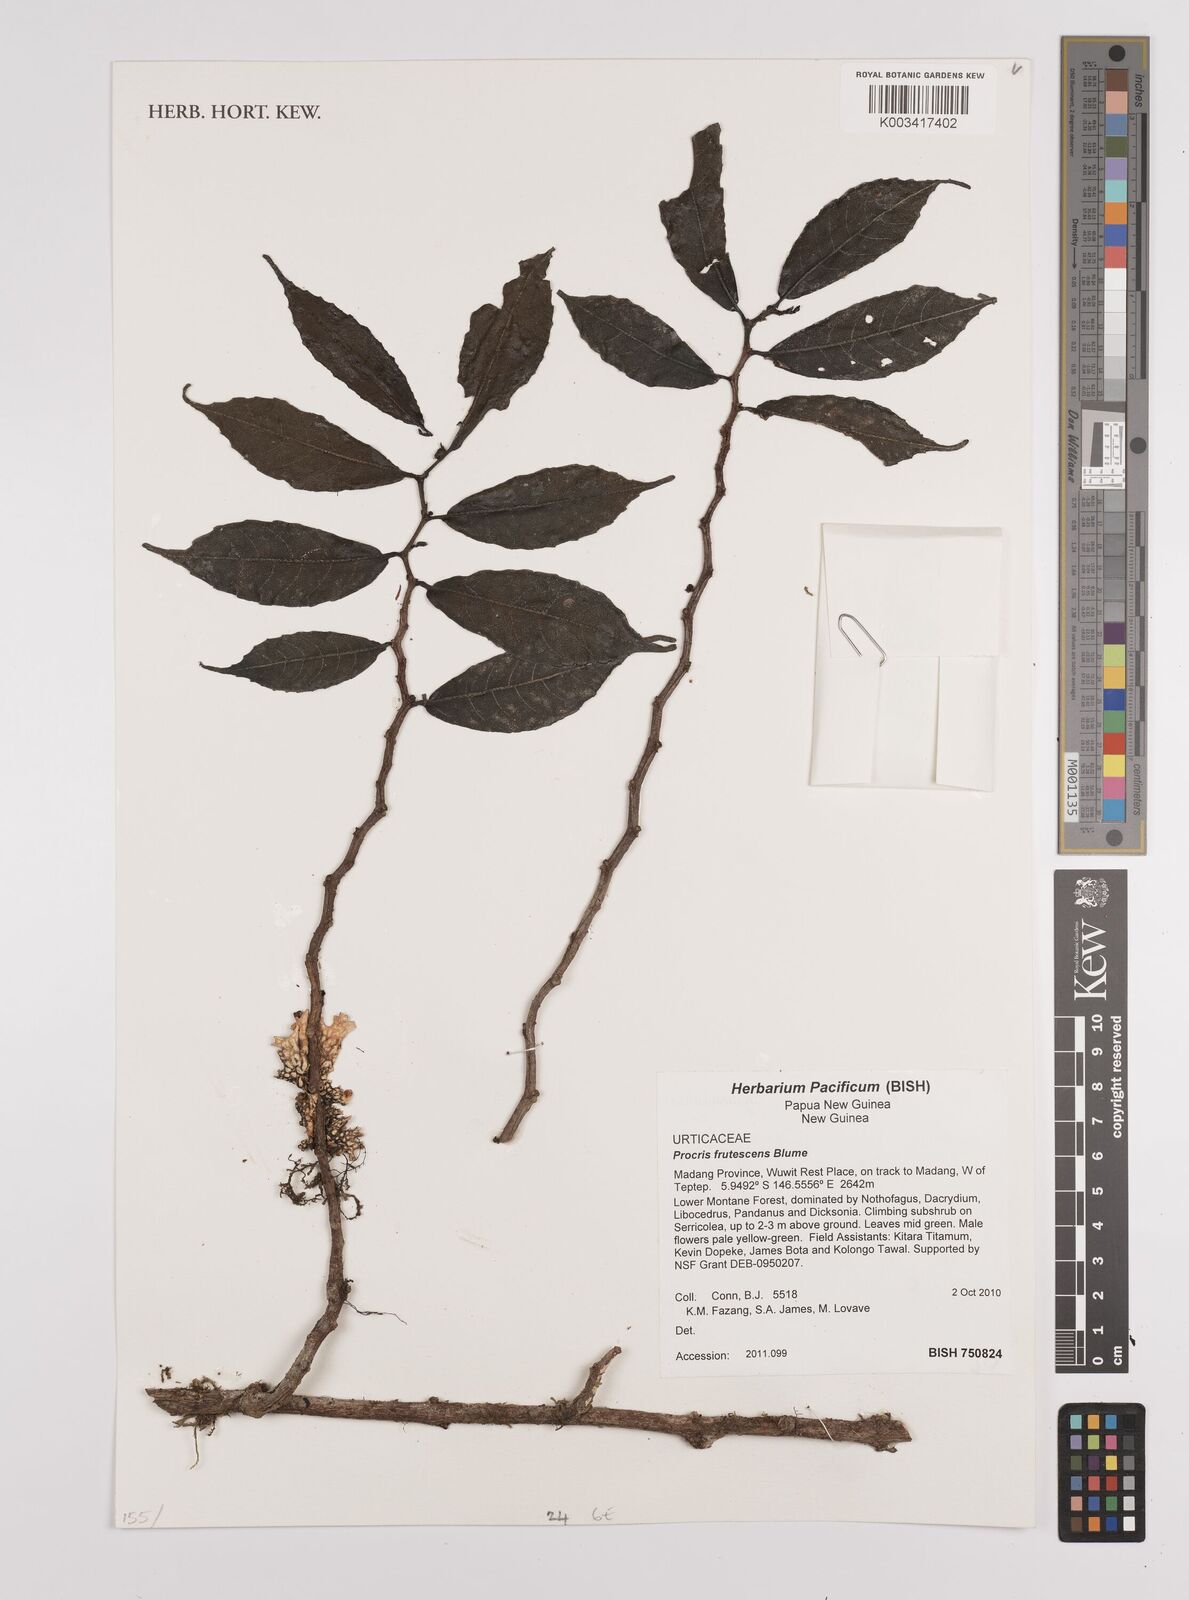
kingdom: Plantae
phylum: Tracheophyta
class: Magnoliopsida
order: Rosales
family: Urticaceae
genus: Procris
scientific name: Procris frutescens
